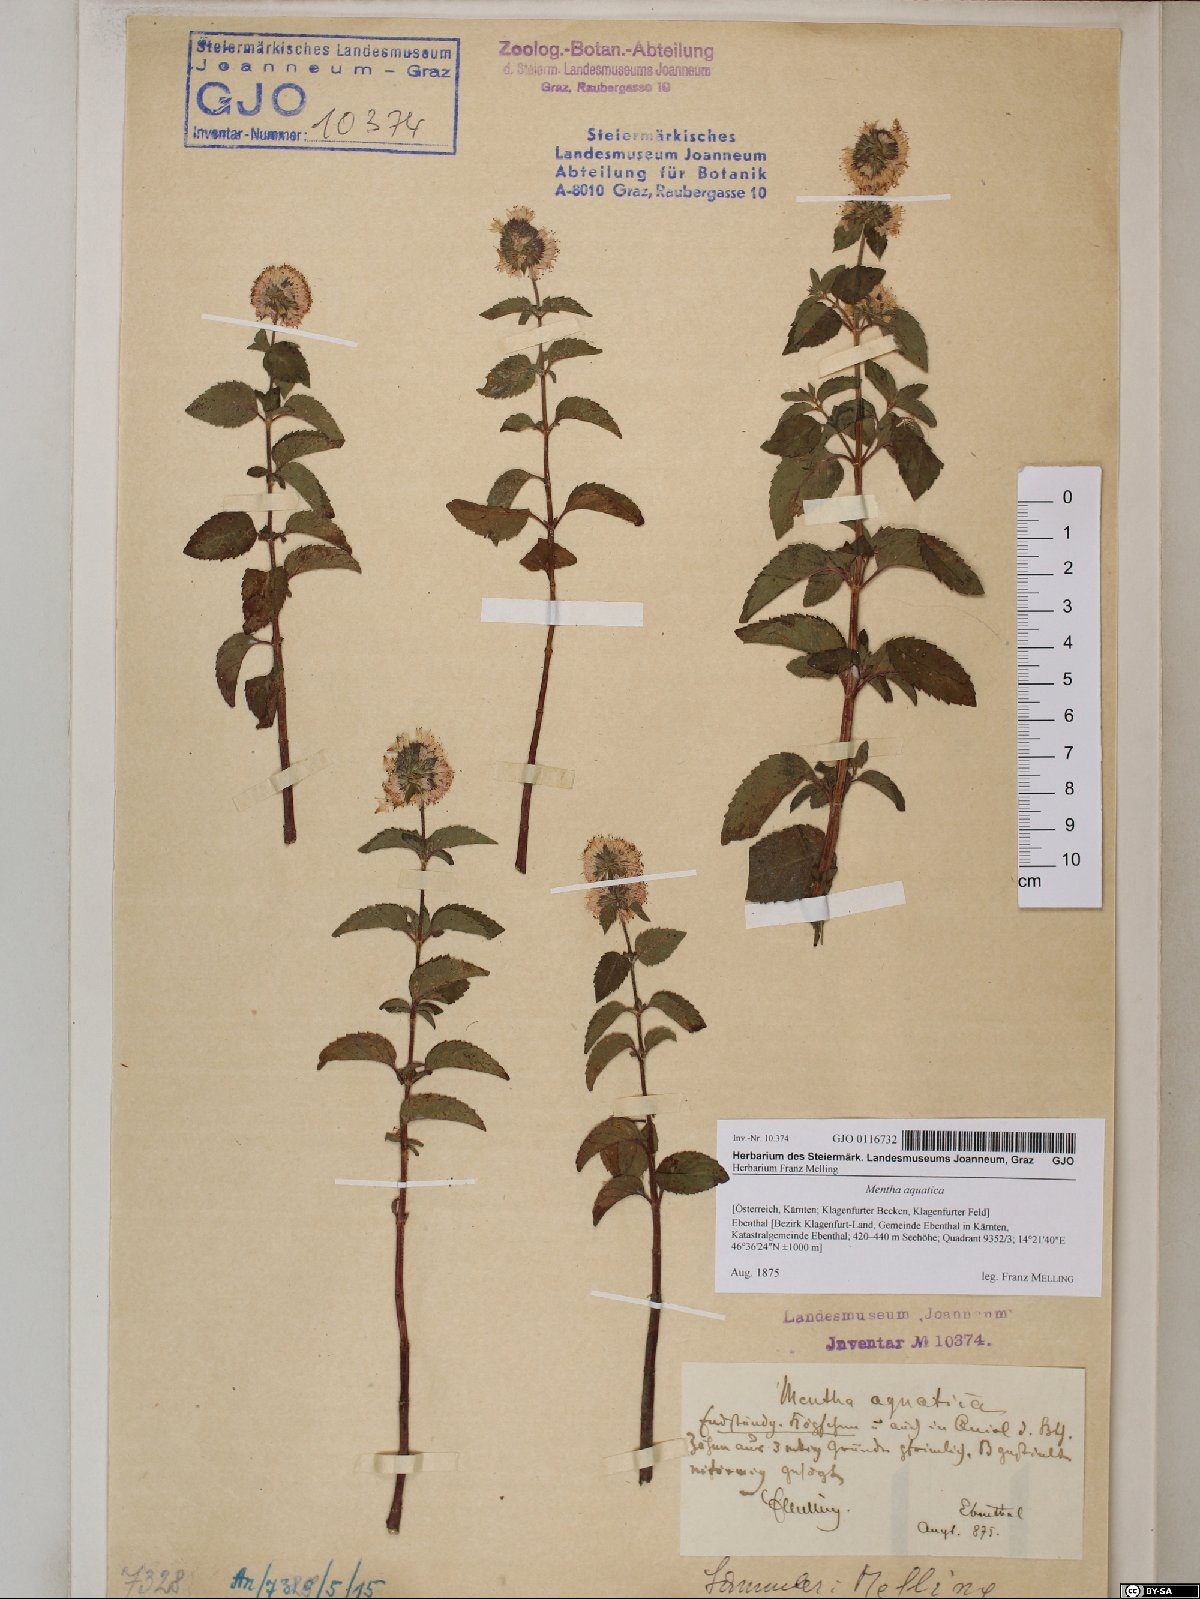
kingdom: Plantae
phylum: Tracheophyta
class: Magnoliopsida
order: Lamiales
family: Lamiaceae
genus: Mentha
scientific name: Mentha aquatica
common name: Water mint
